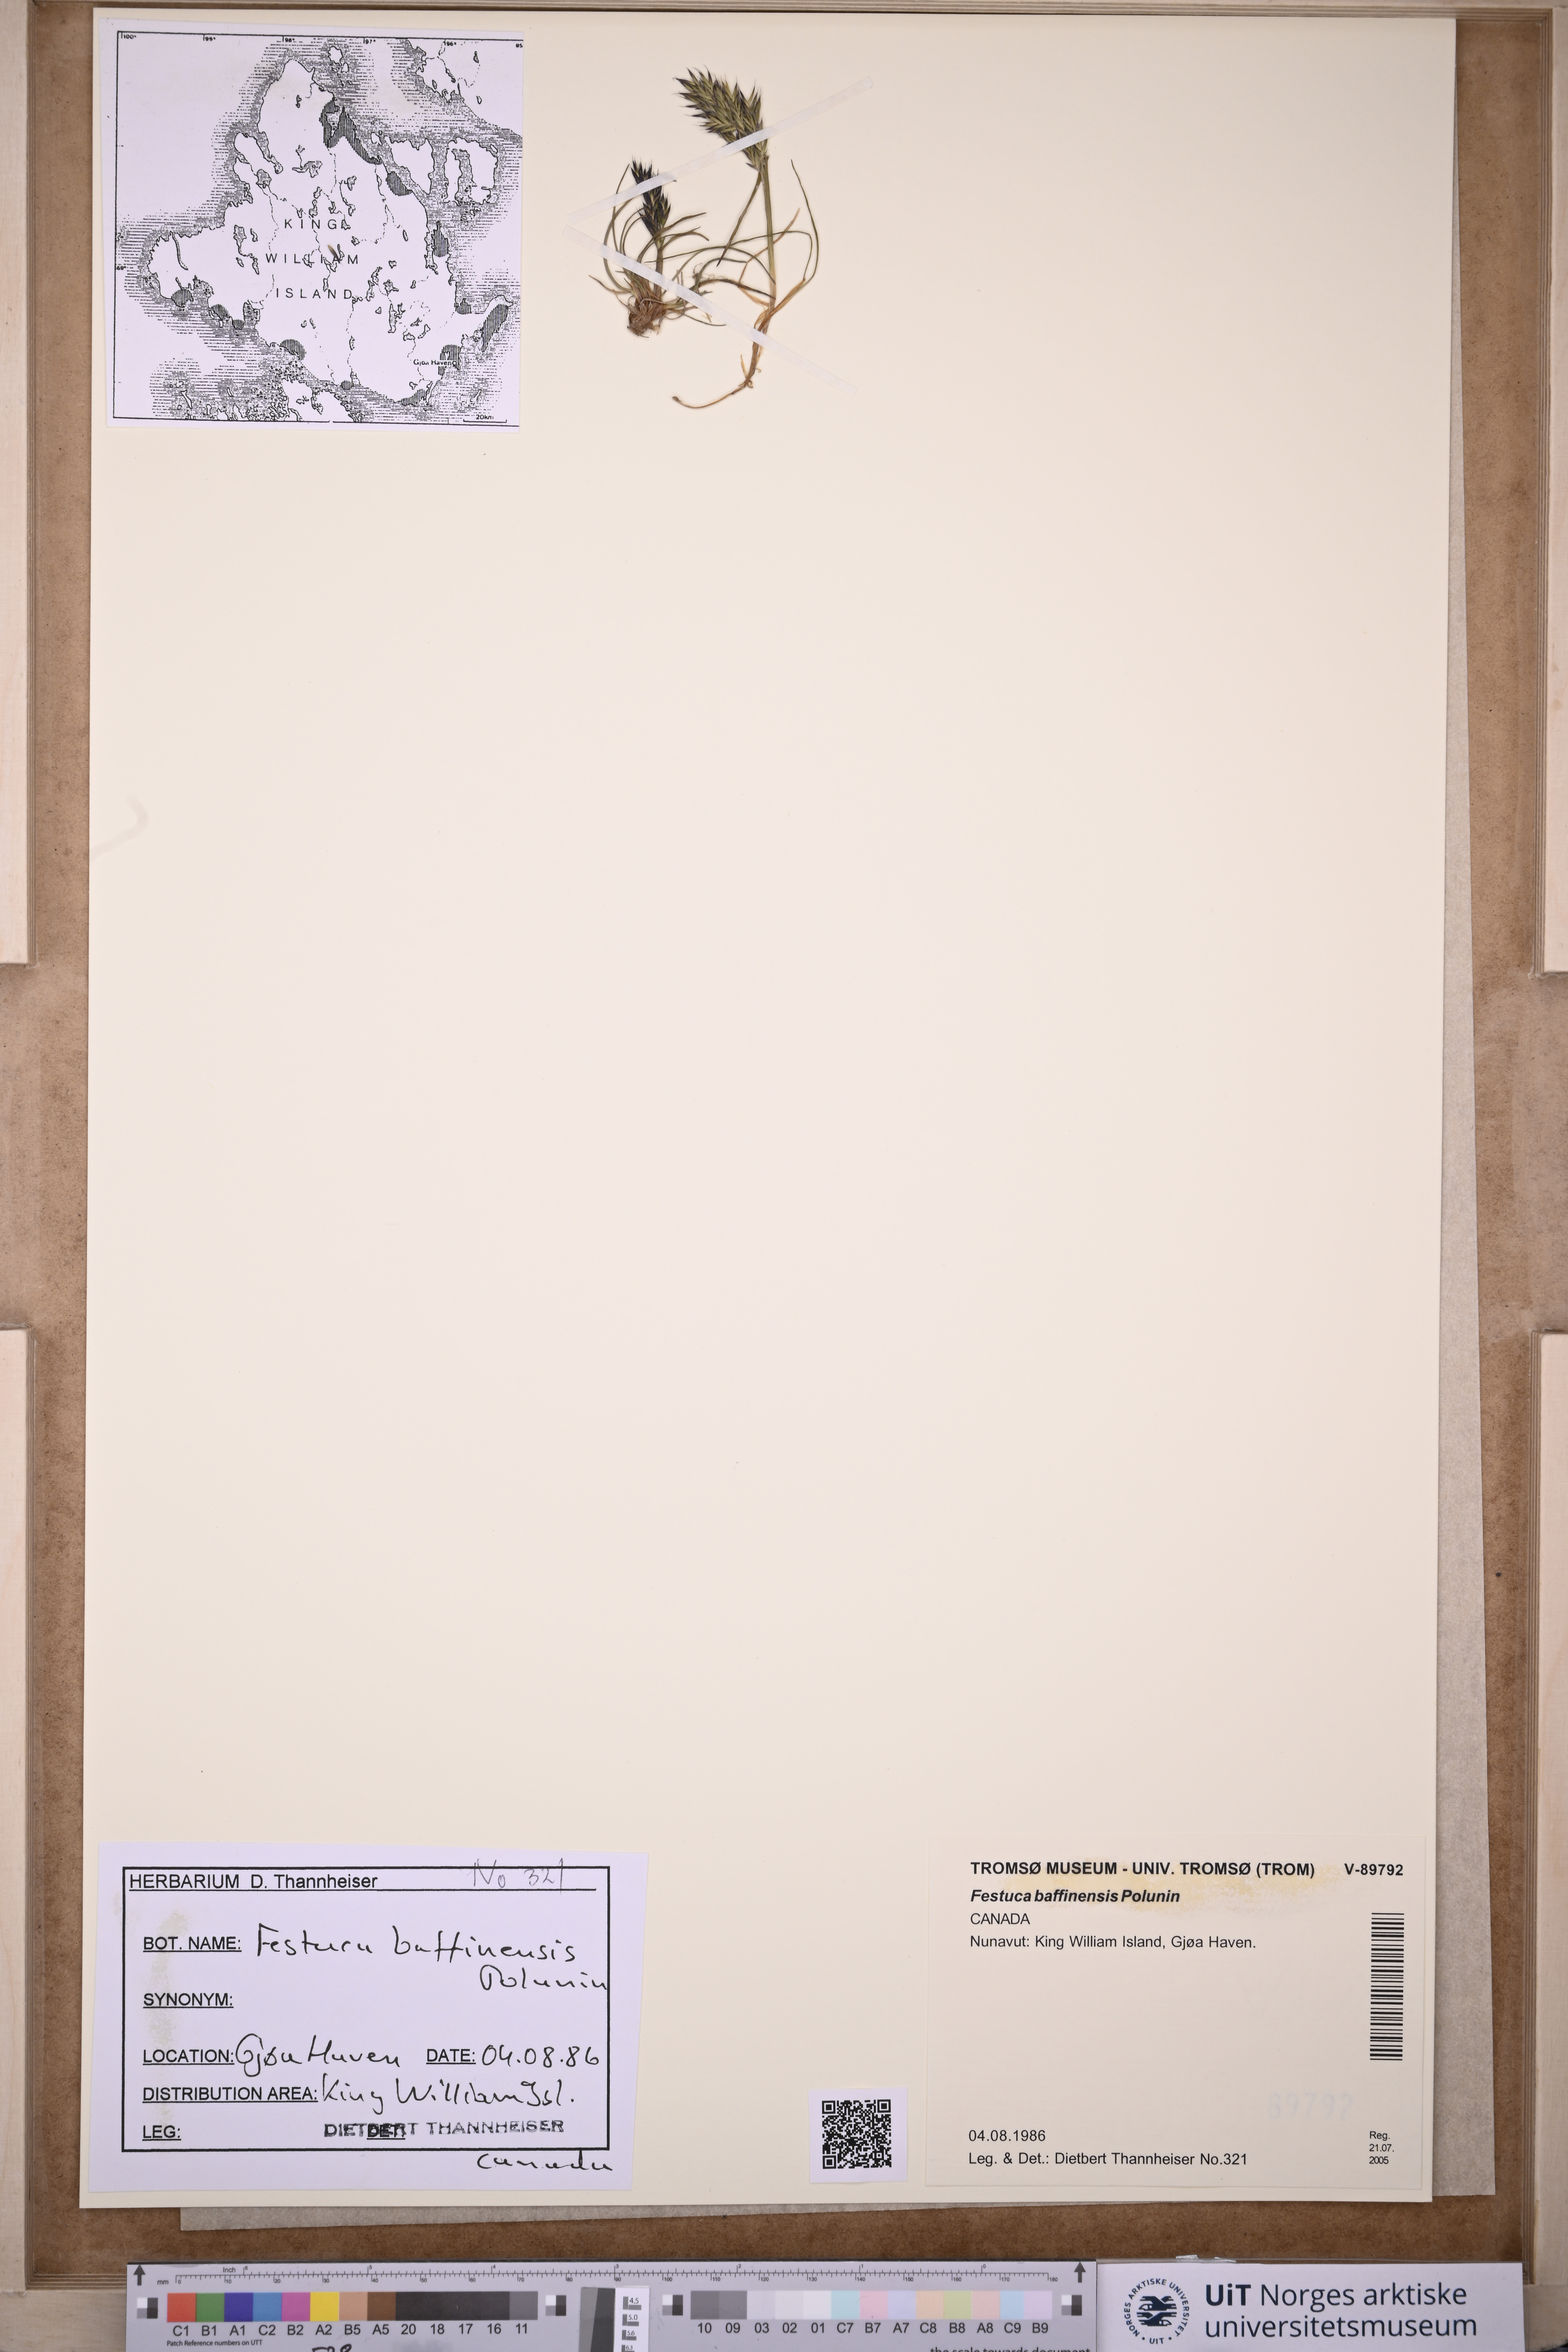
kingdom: Plantae
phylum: Tracheophyta
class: Liliopsida
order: Poales
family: Poaceae
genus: Festuca
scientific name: Festuca baffinensis
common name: Baffin island fescue
